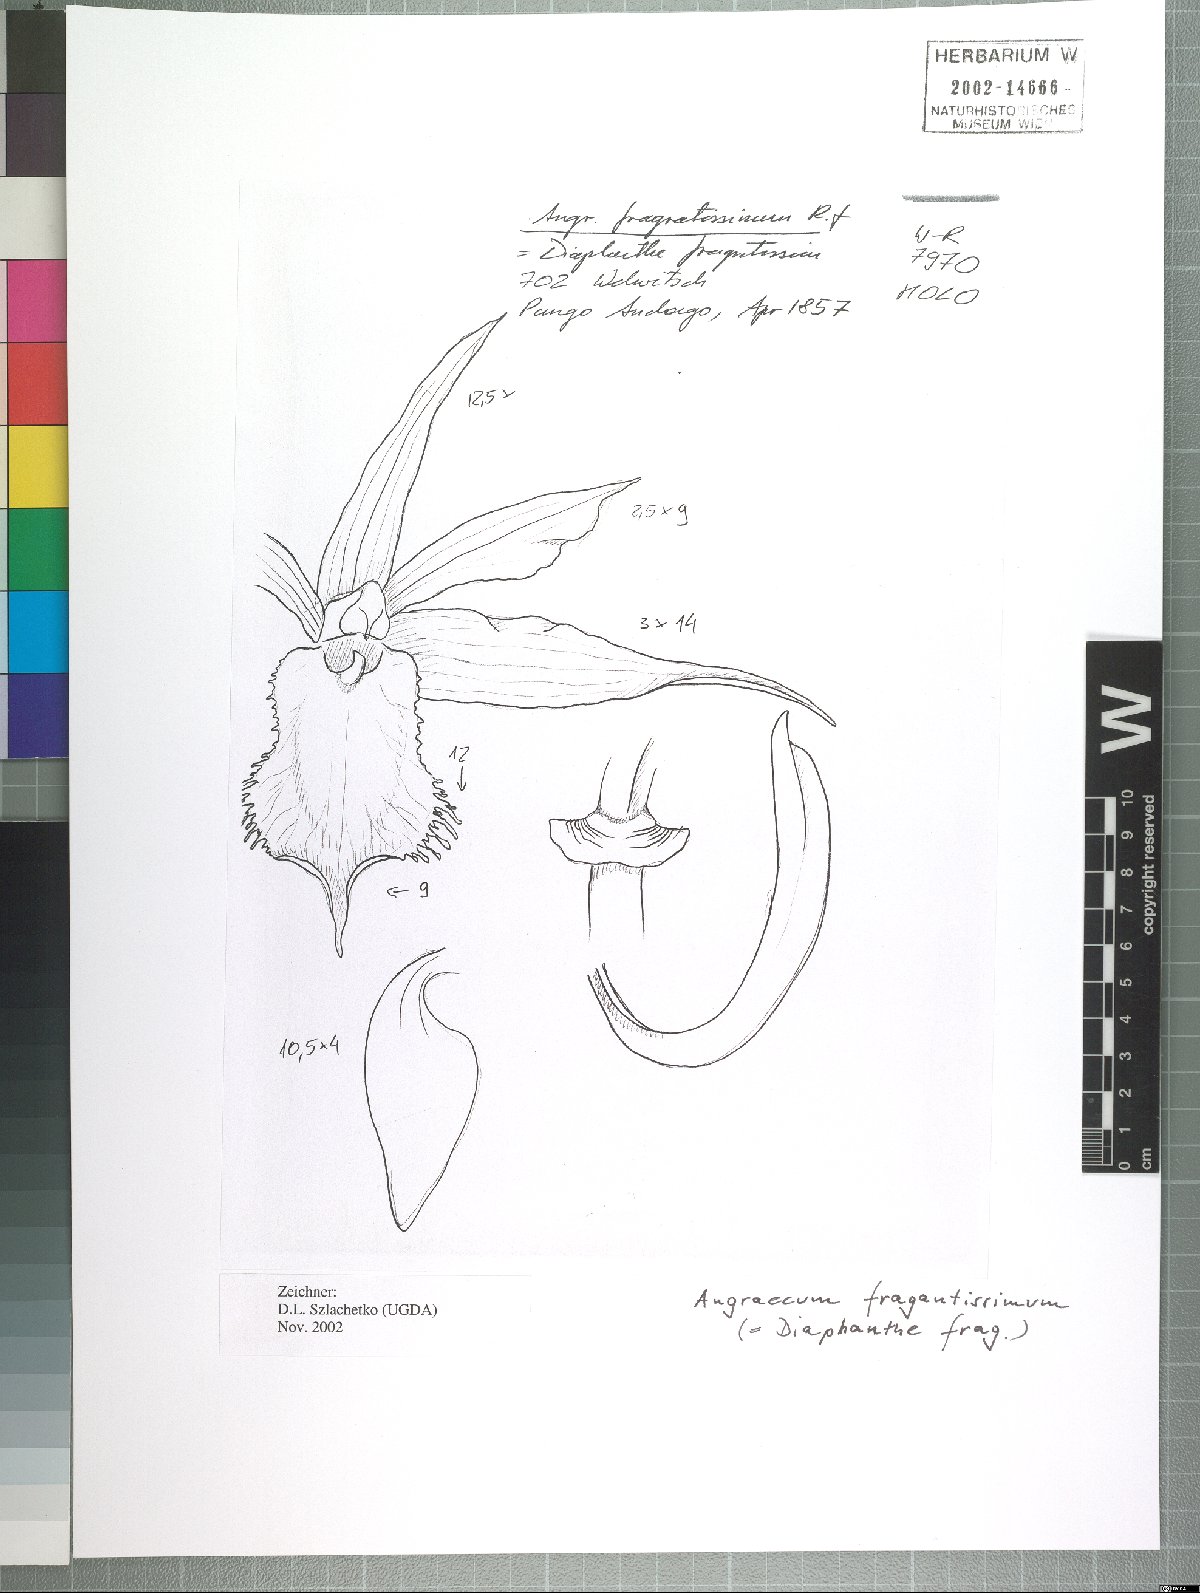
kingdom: Plantae
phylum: Tracheophyta
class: Liliopsida
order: Asparagales
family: Orchidaceae
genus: Diaphananthe
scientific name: Diaphananthe fragrantissima
